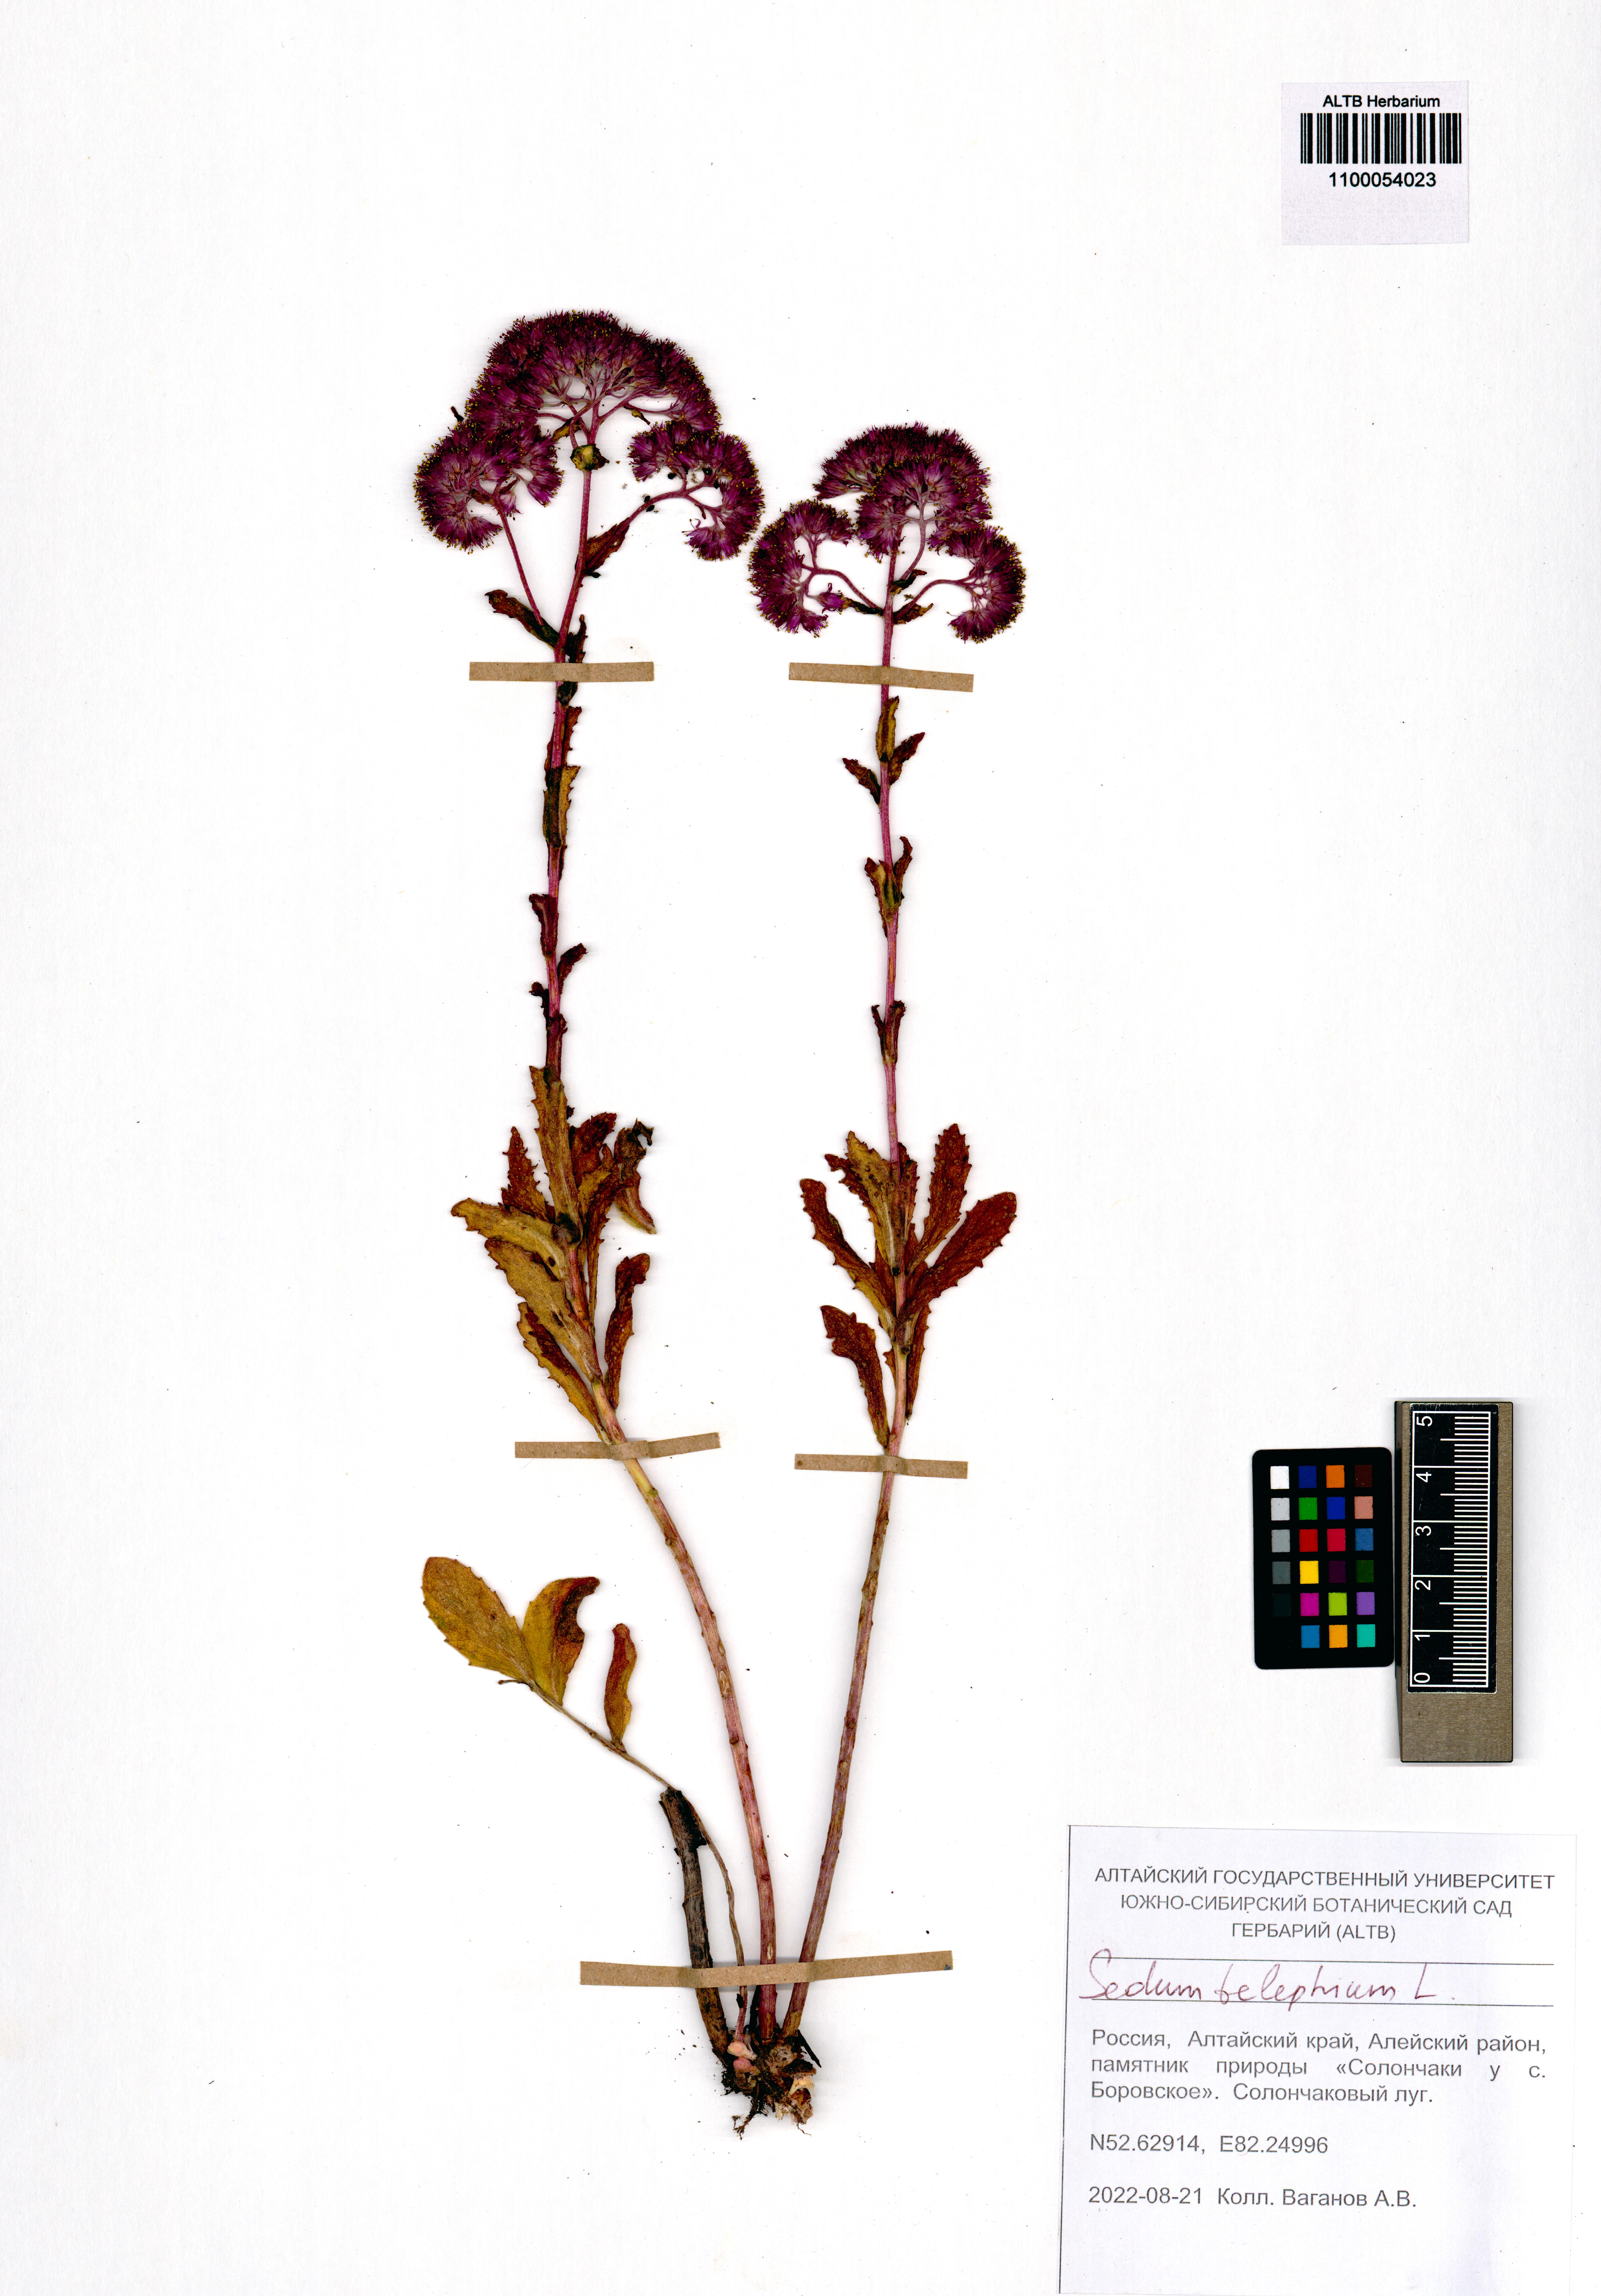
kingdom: Plantae
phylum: Tracheophyta
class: Magnoliopsida
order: Saxifragales
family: Crassulaceae
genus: Hylotelephium
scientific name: Hylotelephium telephium
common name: Live-forever
